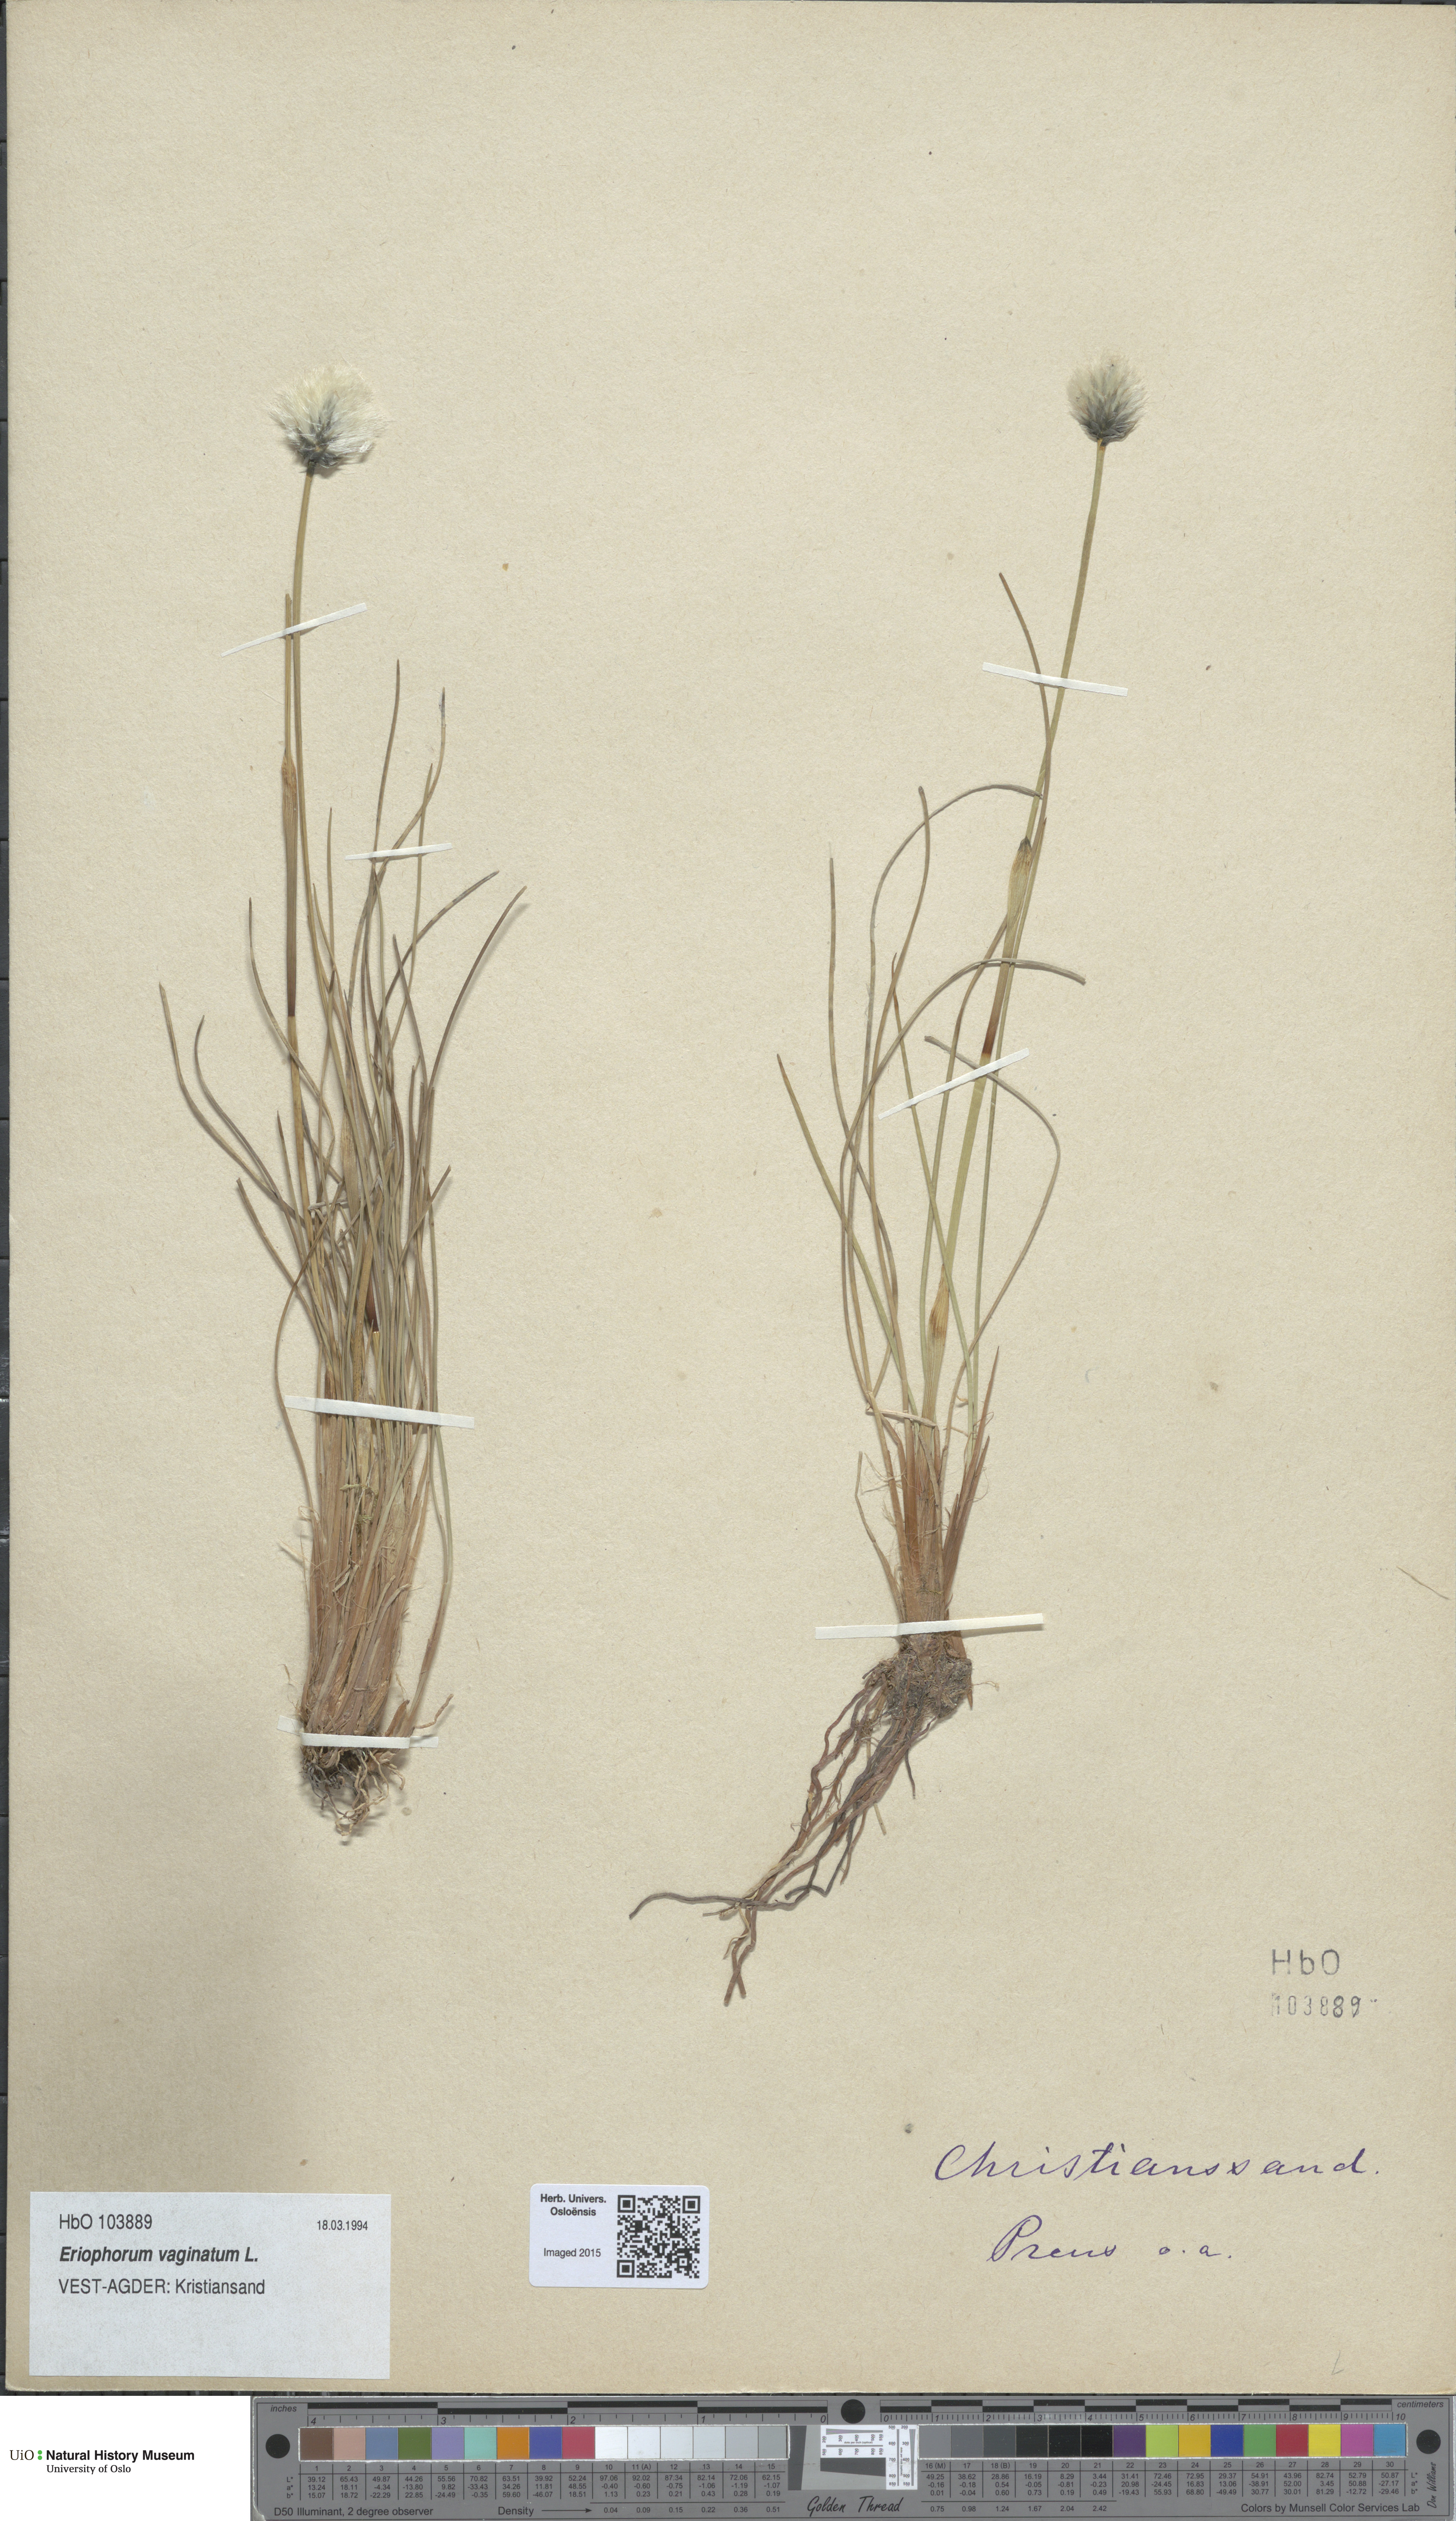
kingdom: Plantae
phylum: Tracheophyta
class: Liliopsida
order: Poales
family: Cyperaceae
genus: Eriophorum
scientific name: Eriophorum vaginatum
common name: Hare's-tail cottongrass
